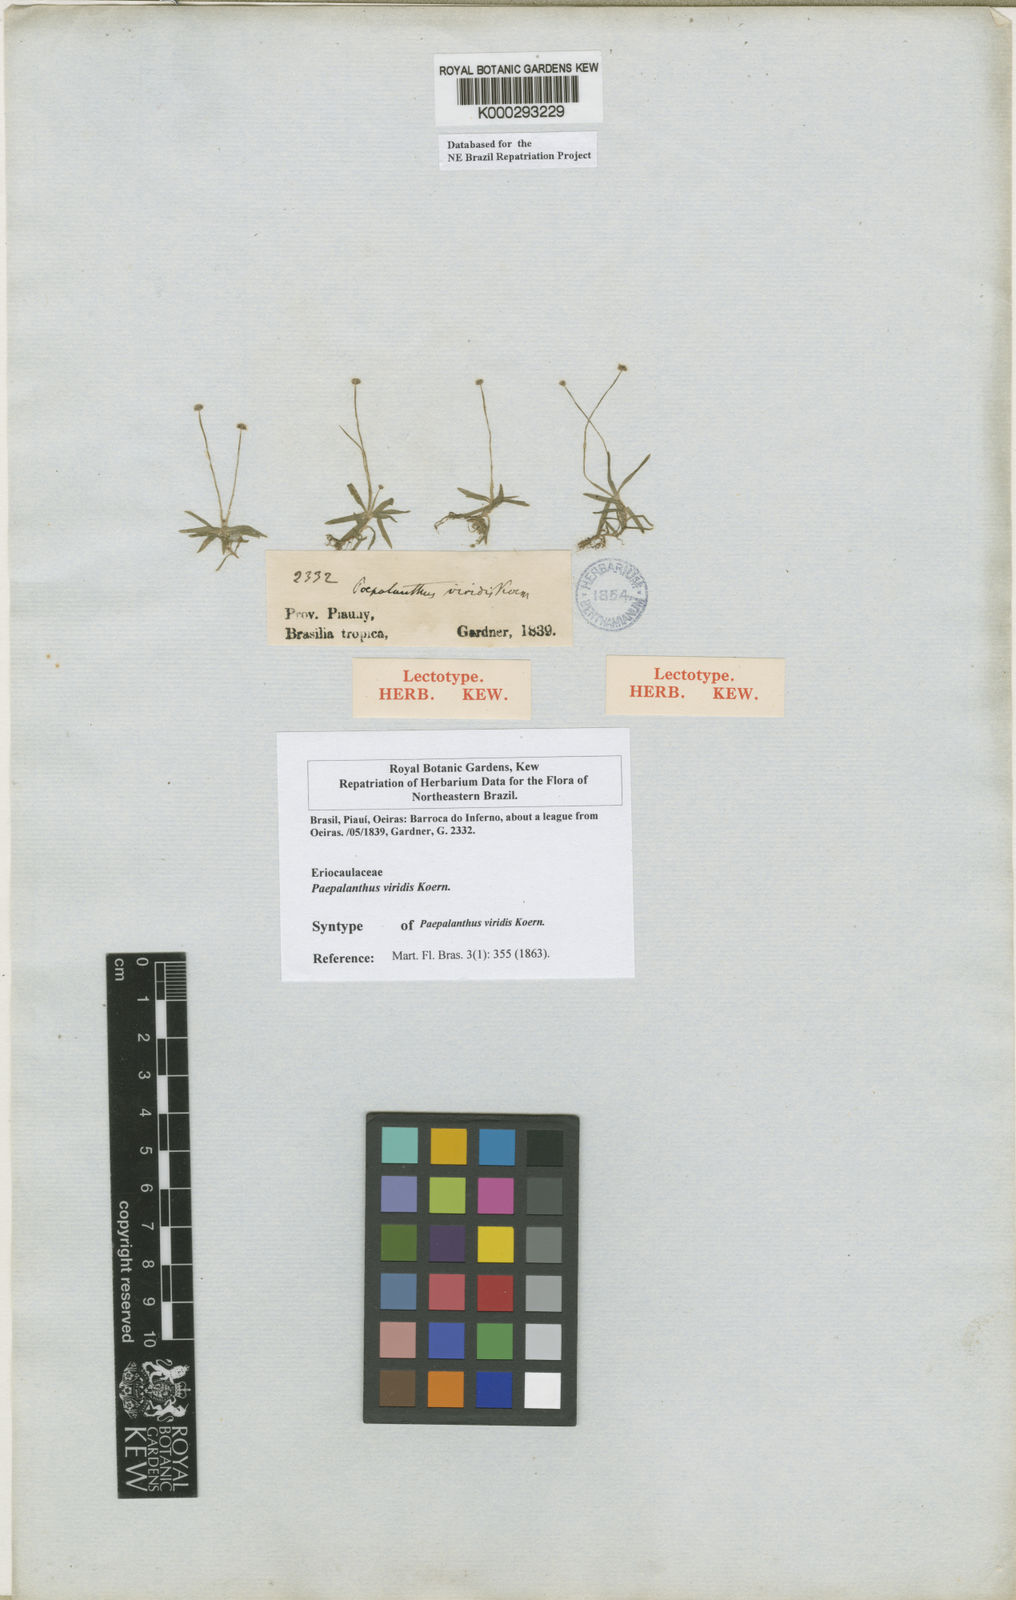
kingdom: Plantae
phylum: Tracheophyta
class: Liliopsida
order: Poales
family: Eriocaulaceae
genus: Paepalanthus
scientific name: Paepalanthus
